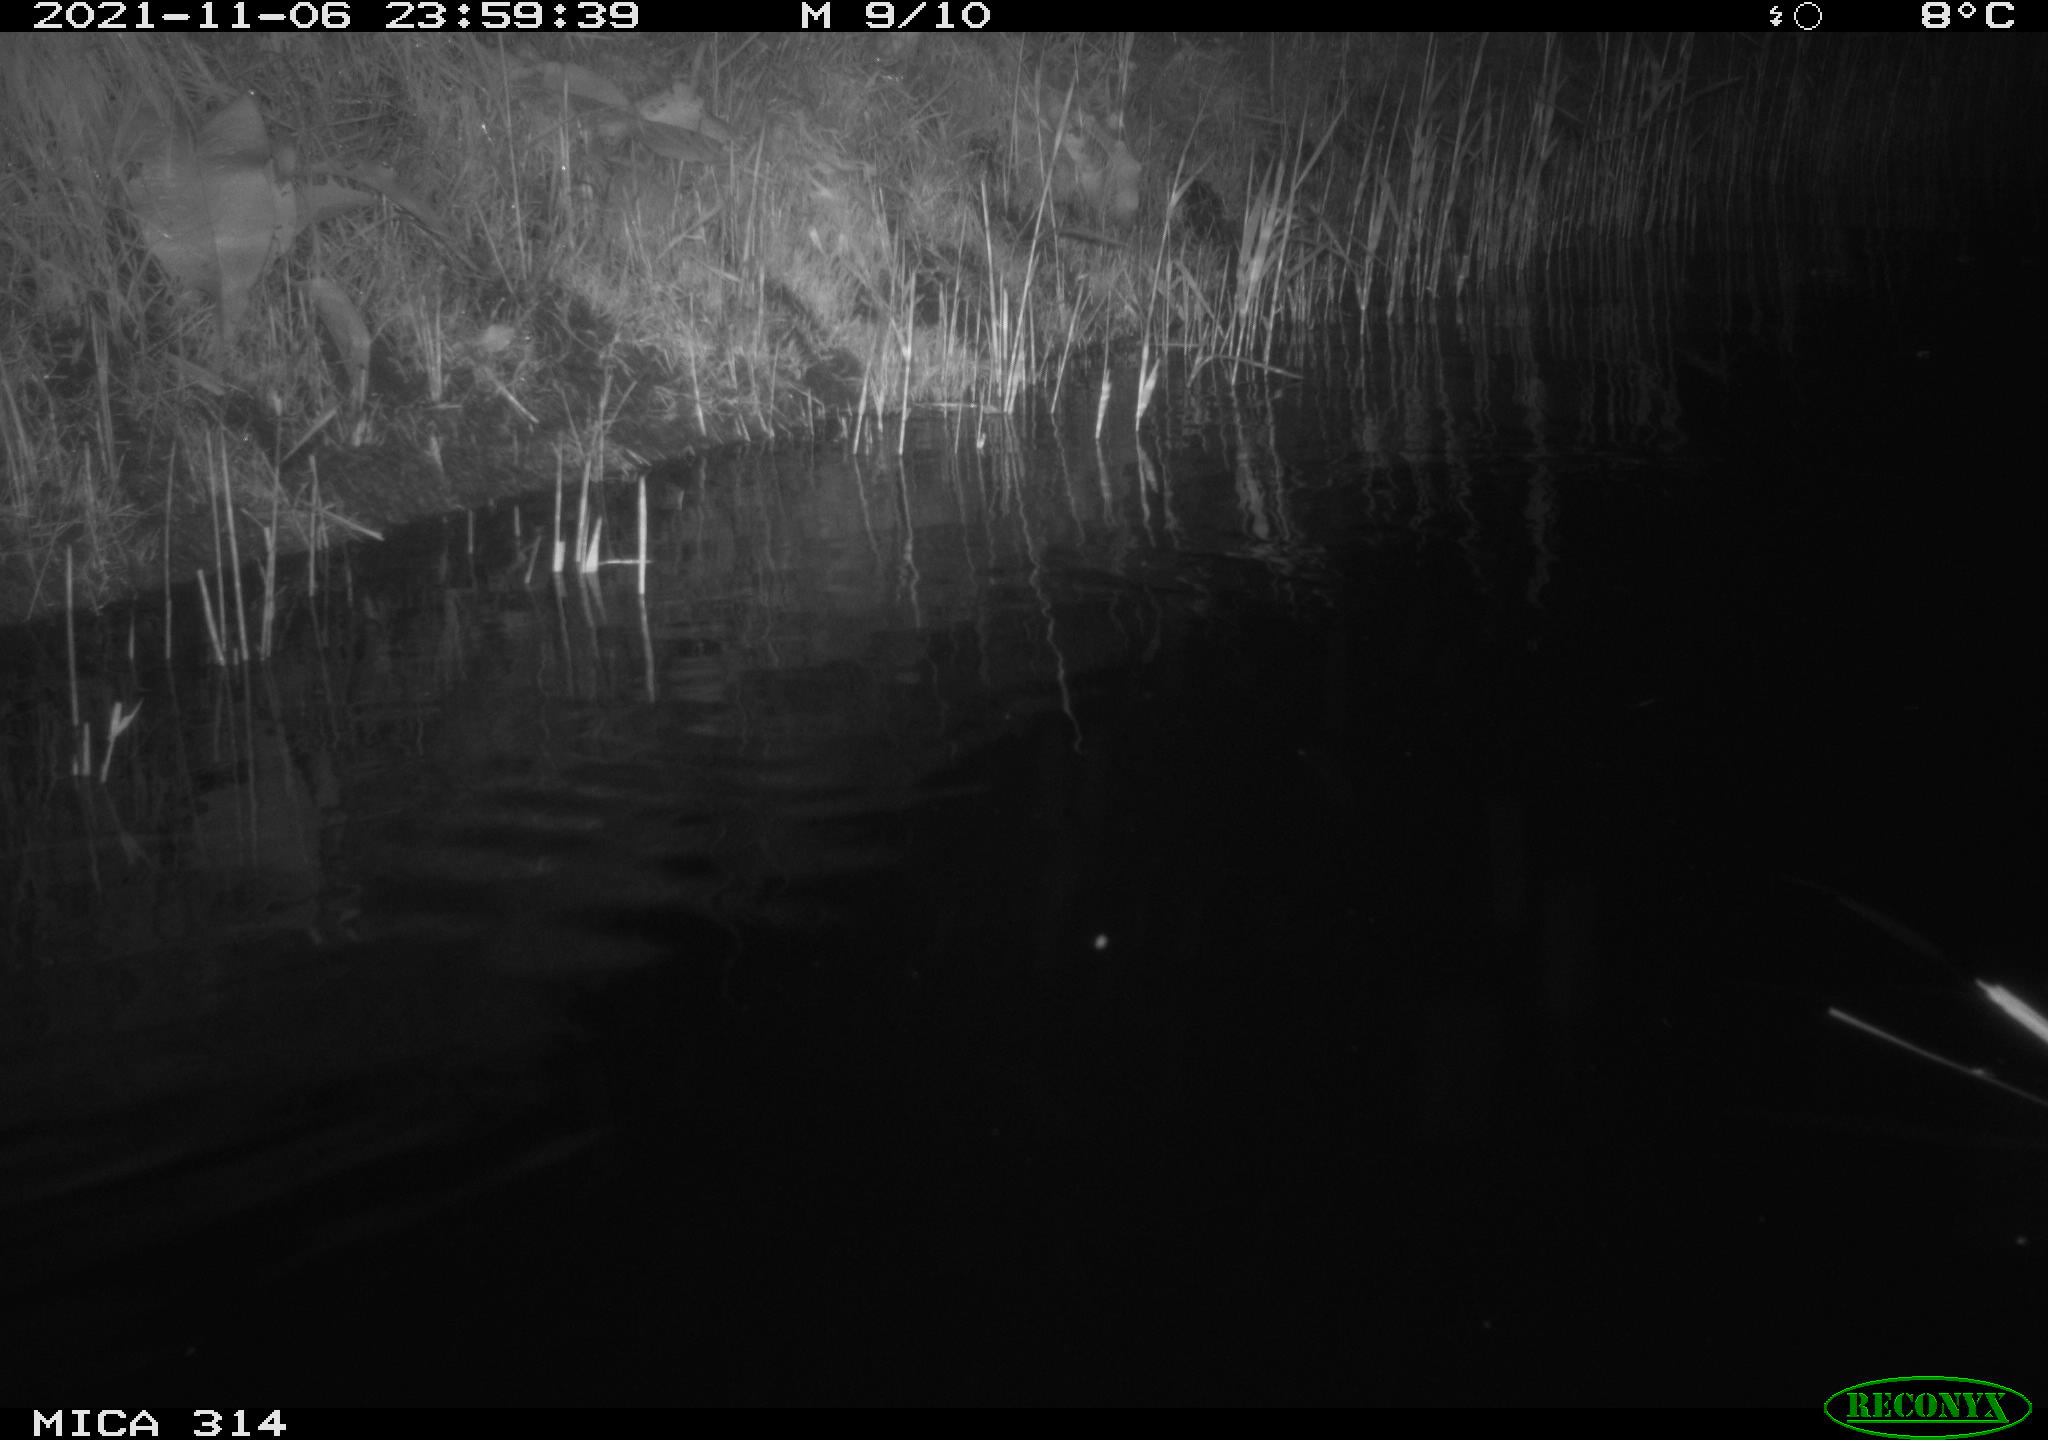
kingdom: Animalia
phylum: Chordata
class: Mammalia
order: Rodentia
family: Muridae
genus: Rattus
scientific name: Rattus norvegicus
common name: Brown rat
